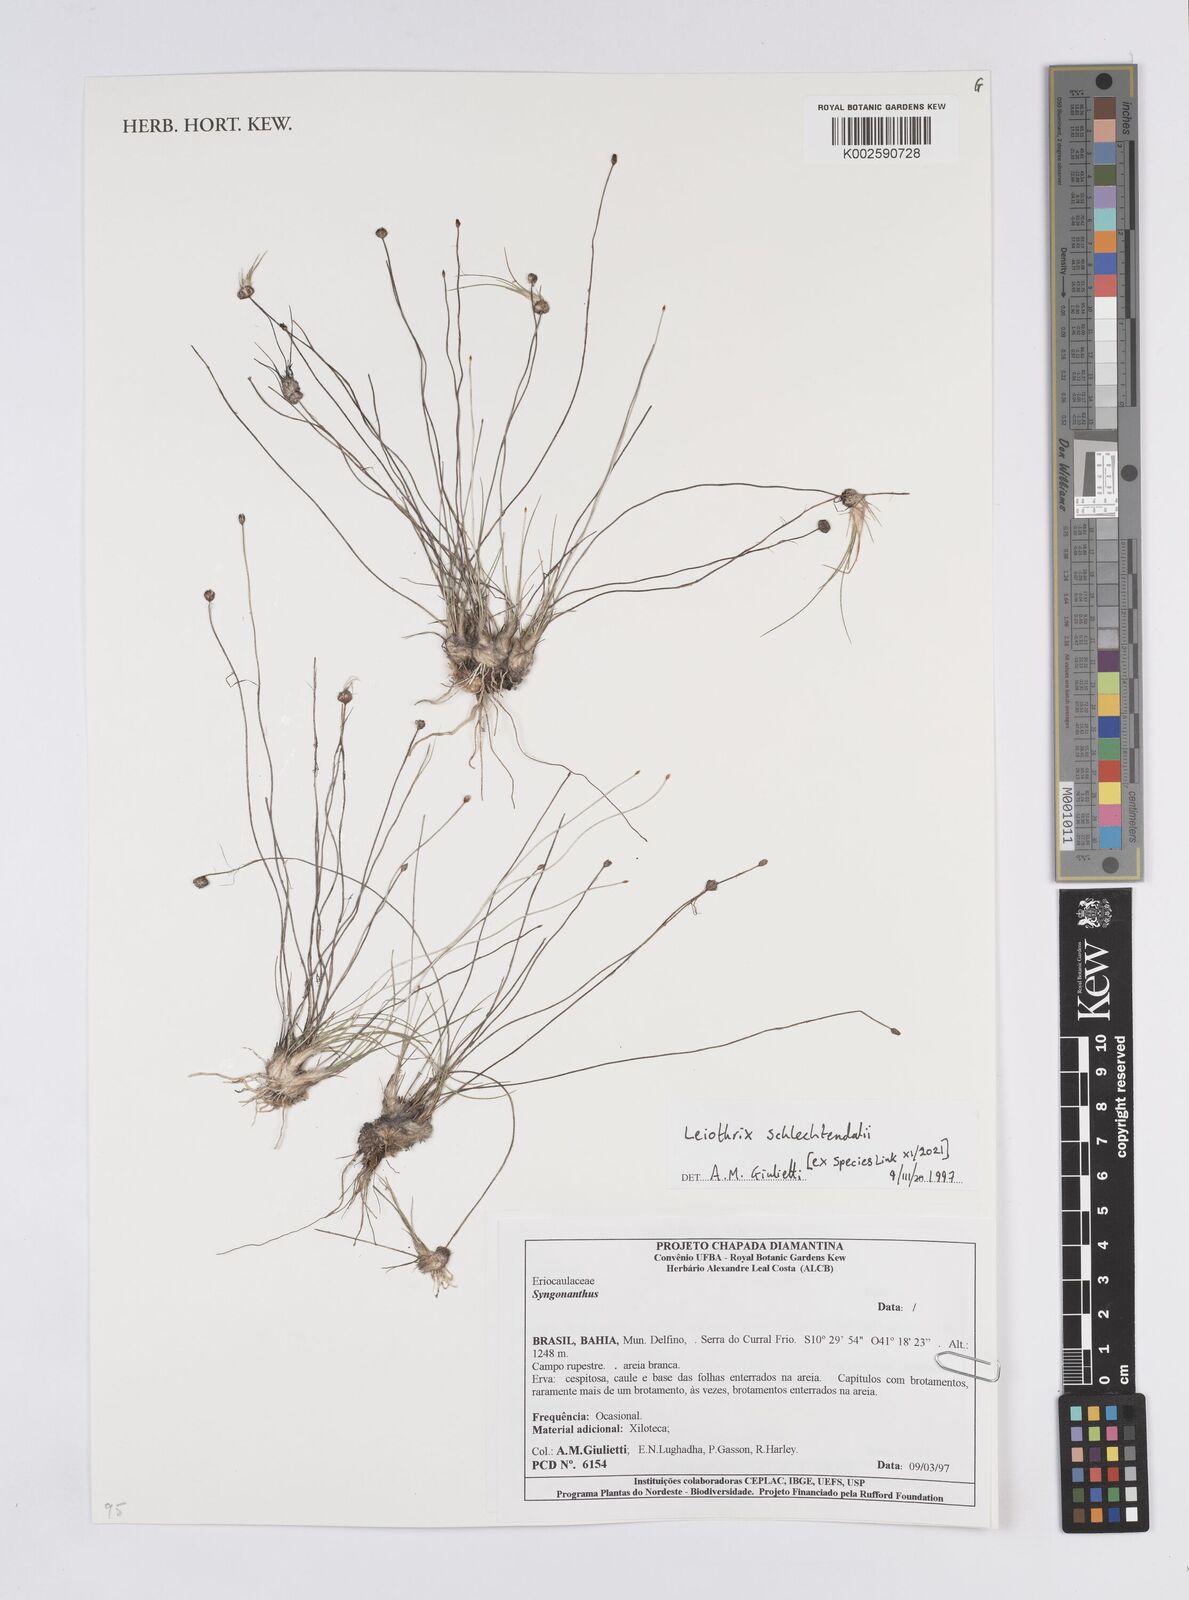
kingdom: Plantae
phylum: Tracheophyta
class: Liliopsida
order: Poales
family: Eriocaulaceae
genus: Leiothrix
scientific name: Leiothrix schlechtendalii
